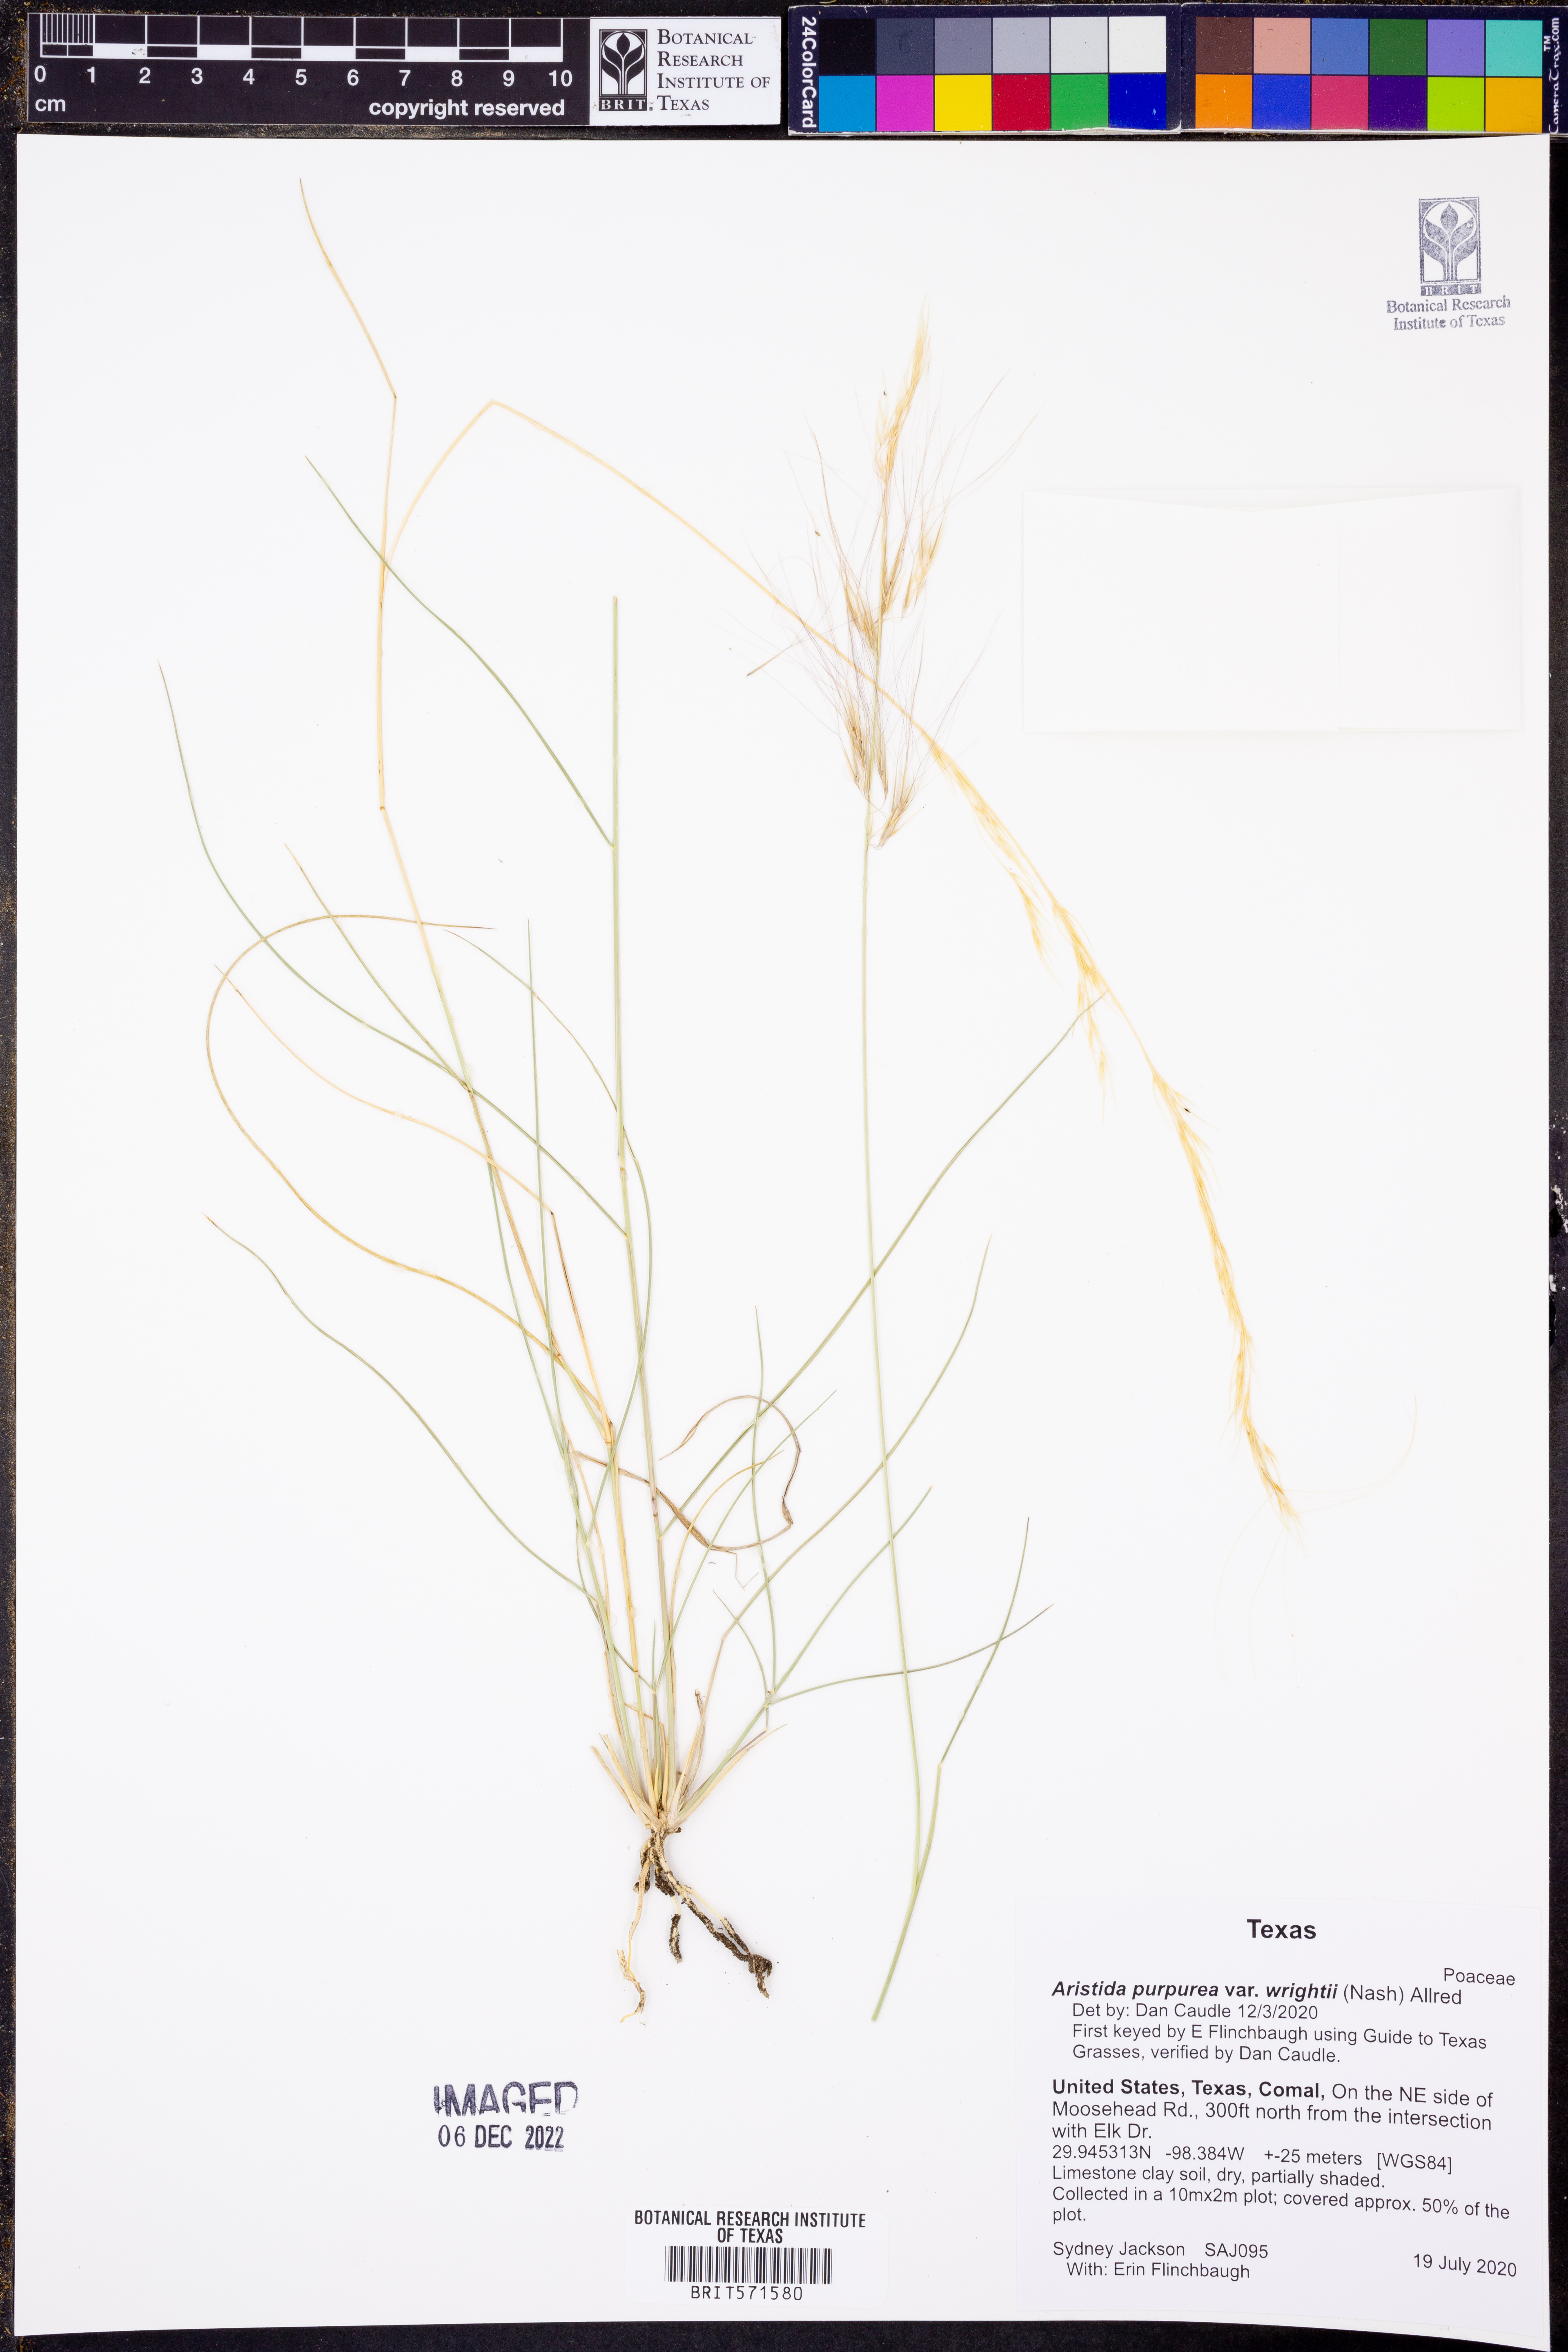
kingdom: Plantae
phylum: Tracheophyta
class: Liliopsida
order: Poales
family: Poaceae
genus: Aristida
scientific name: Aristida wrightii
